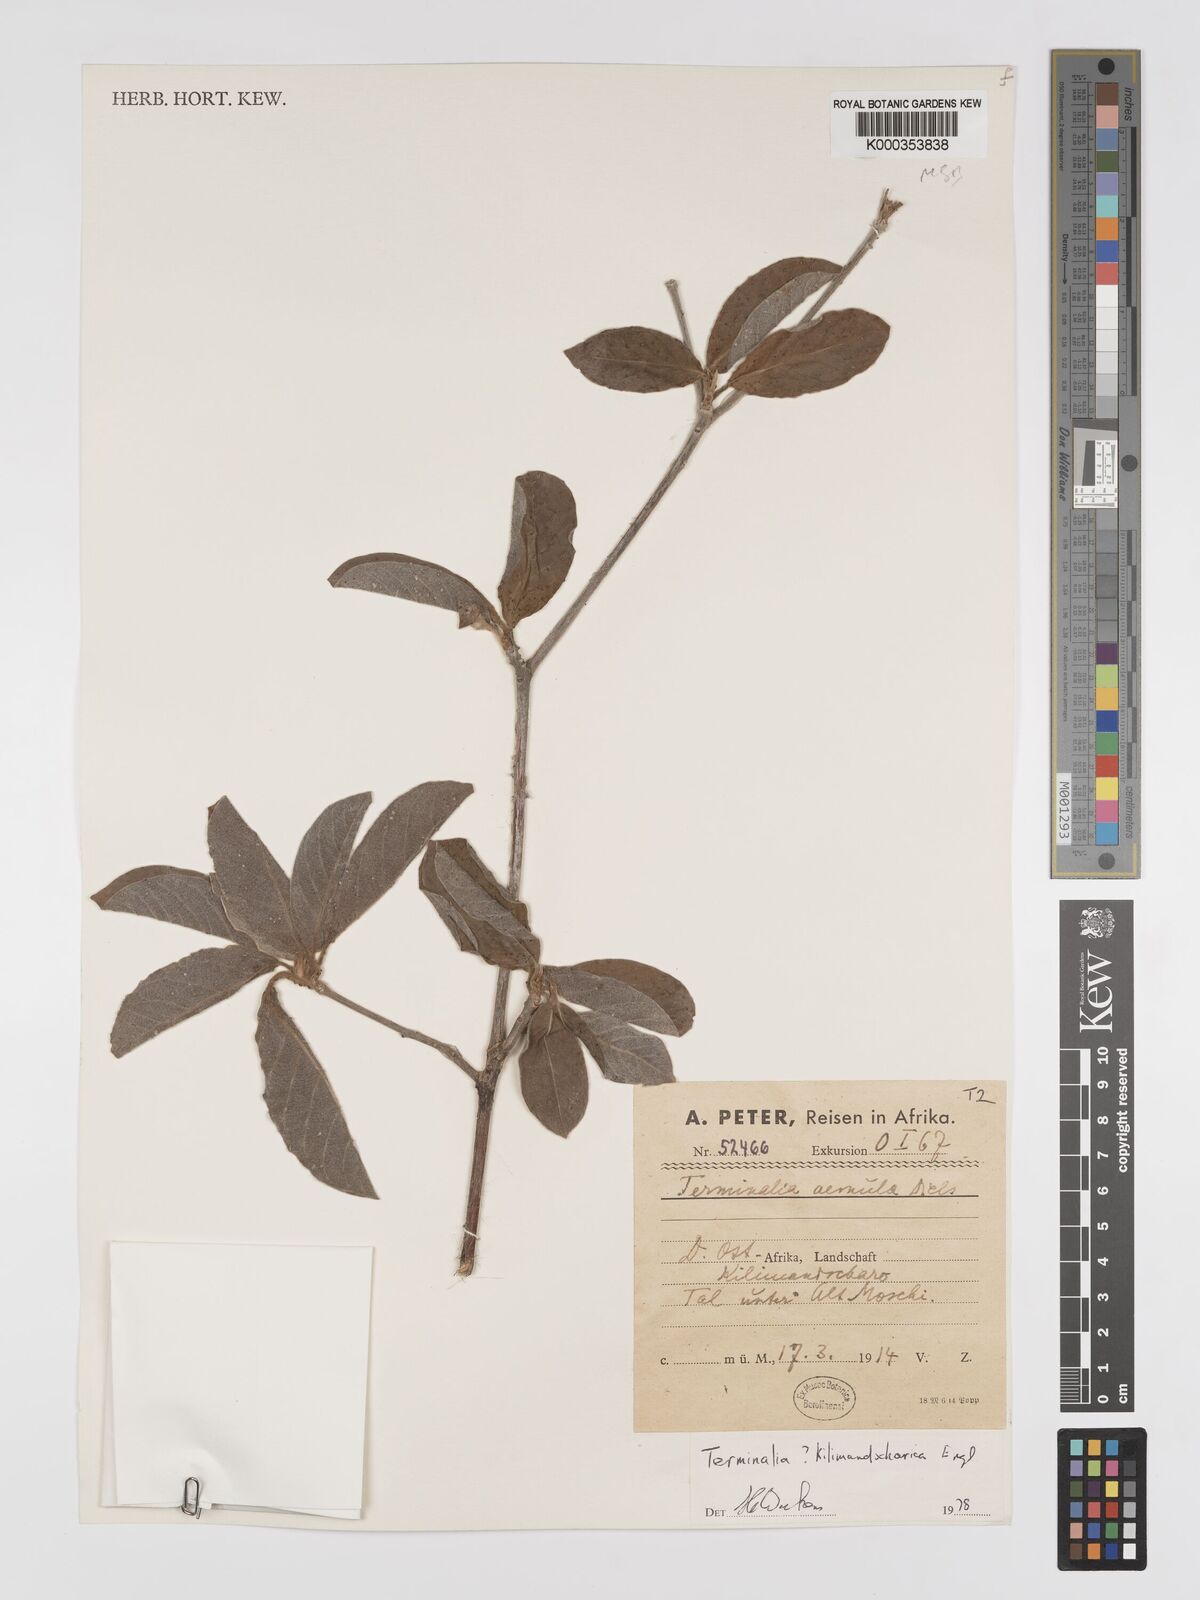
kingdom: Plantae
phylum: Tracheophyta
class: Magnoliopsida
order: Myrtales
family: Combretaceae
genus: Terminalia
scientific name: Terminalia kilimandscharica
